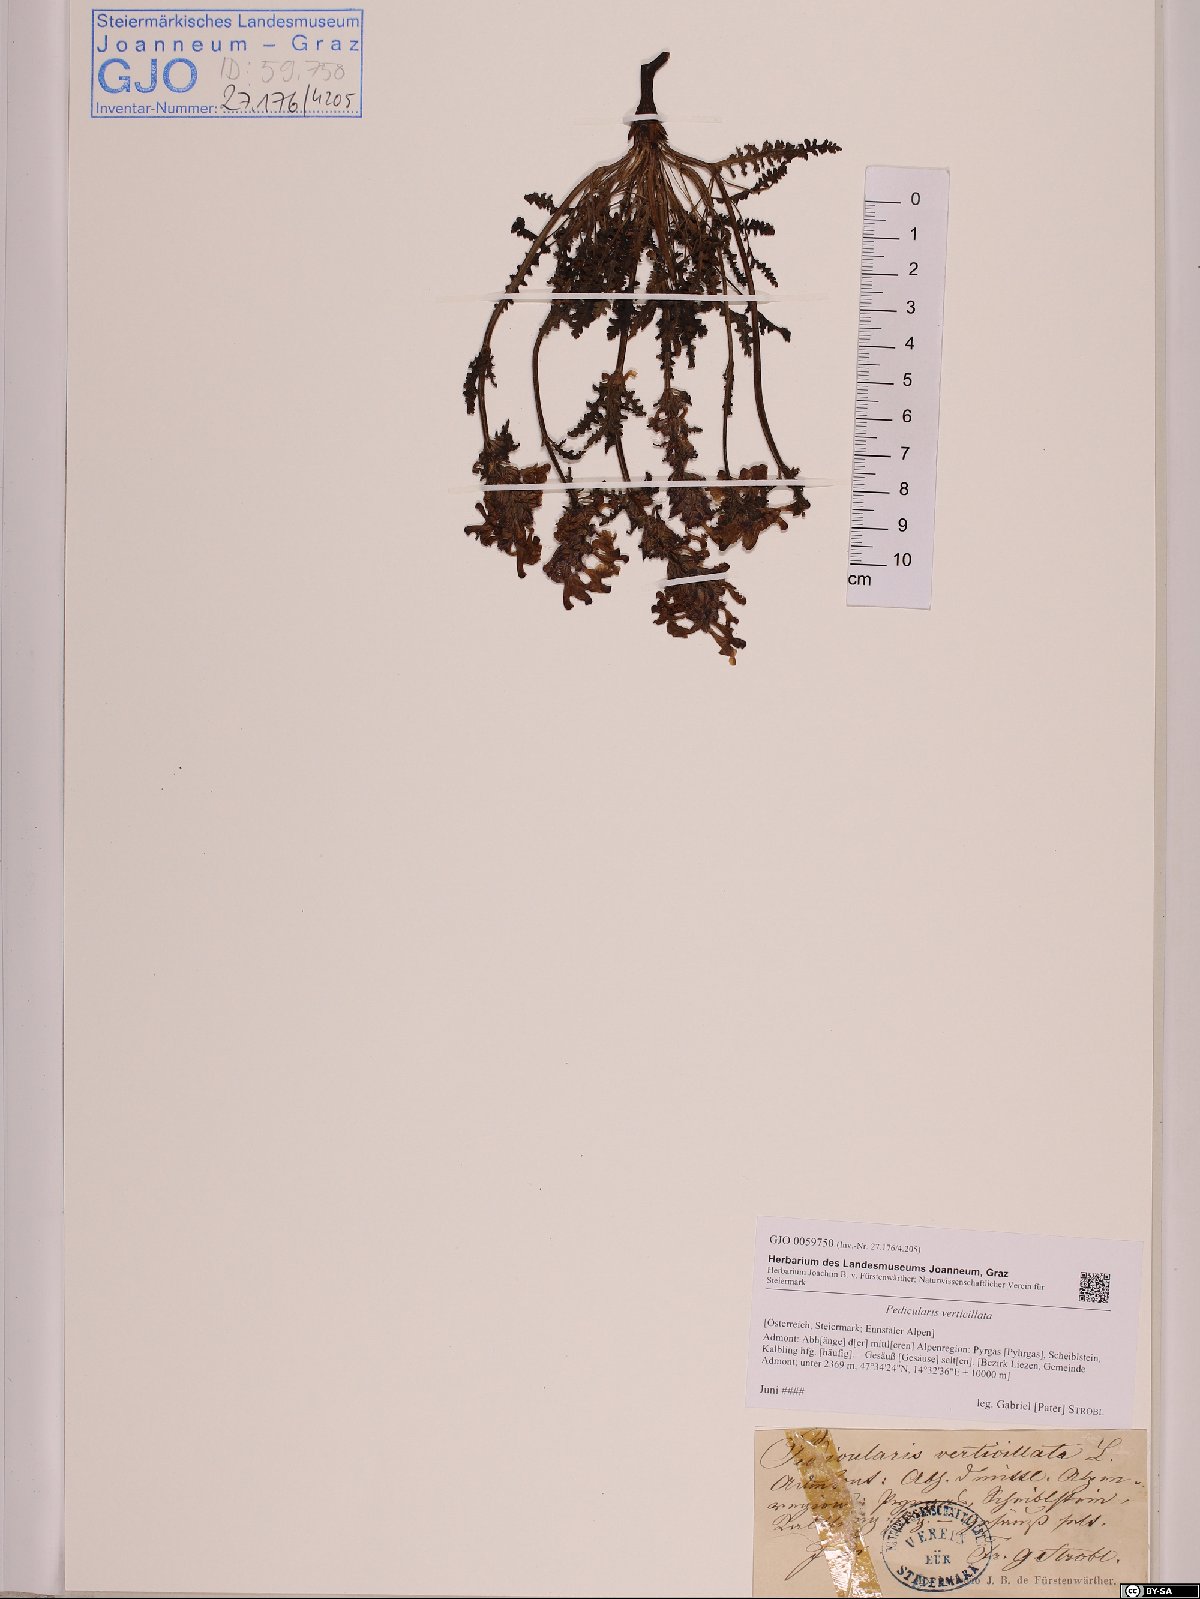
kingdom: Plantae
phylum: Tracheophyta
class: Magnoliopsida
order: Lamiales
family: Orobanchaceae
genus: Pedicularis
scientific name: Pedicularis verticillata
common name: Whorled lousewort
